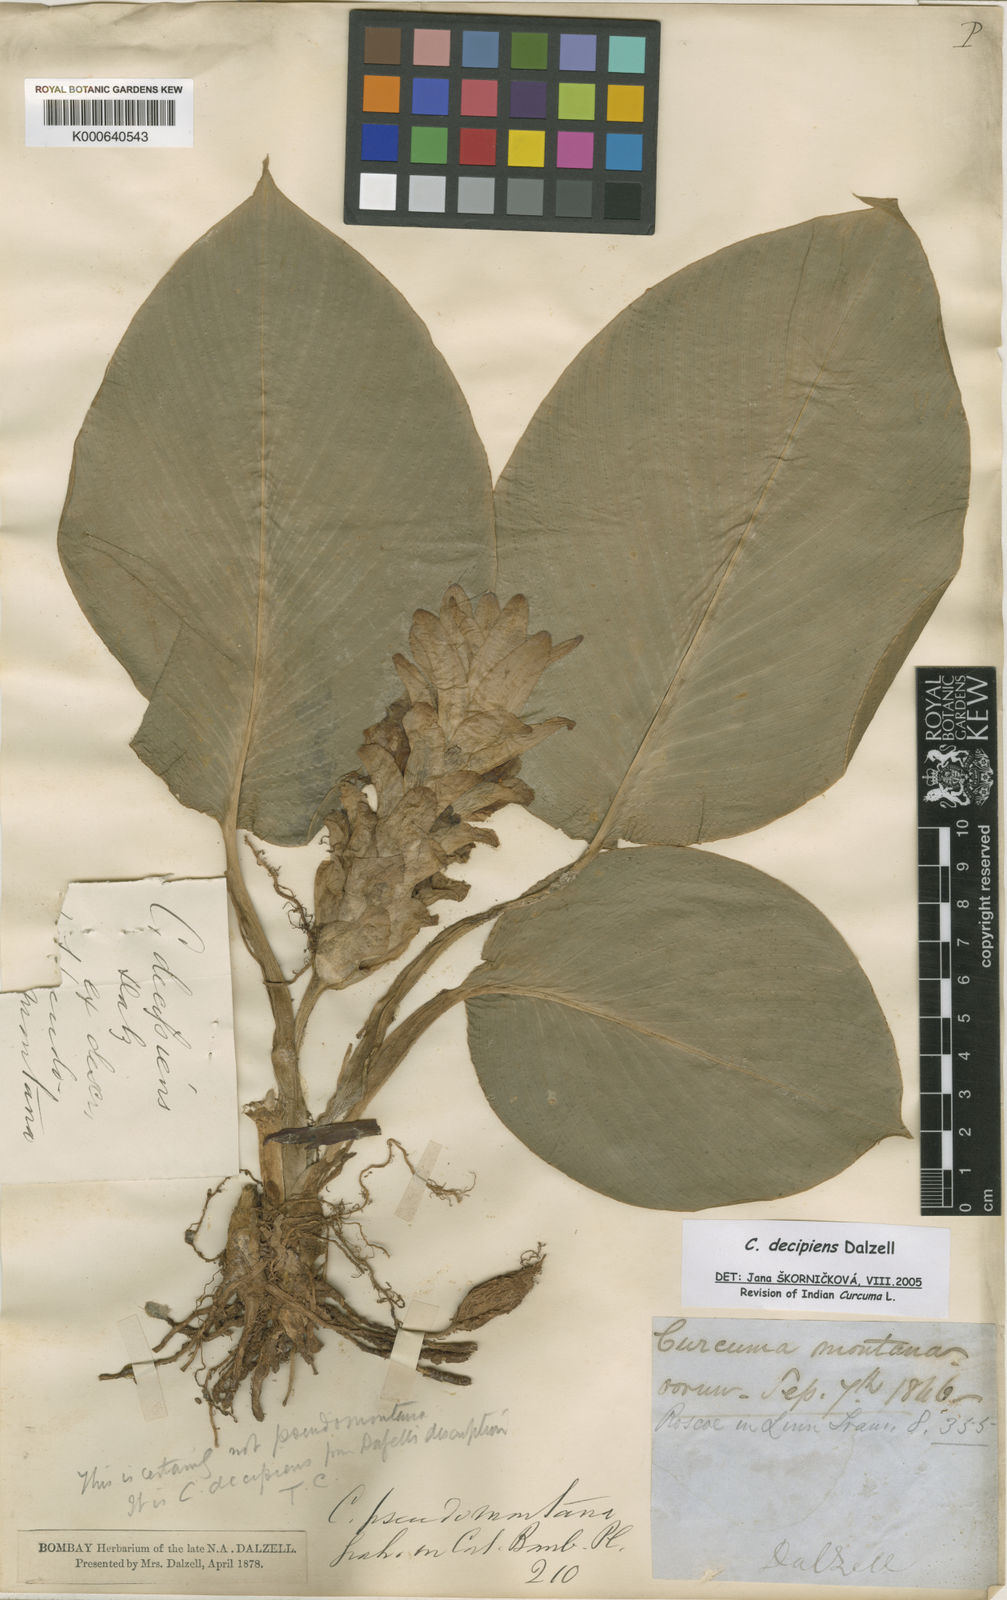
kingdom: Plantae
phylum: Tracheophyta
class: Liliopsida
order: Zingiberales
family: Zingiberaceae
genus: Curcuma
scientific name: Curcuma decipiens
